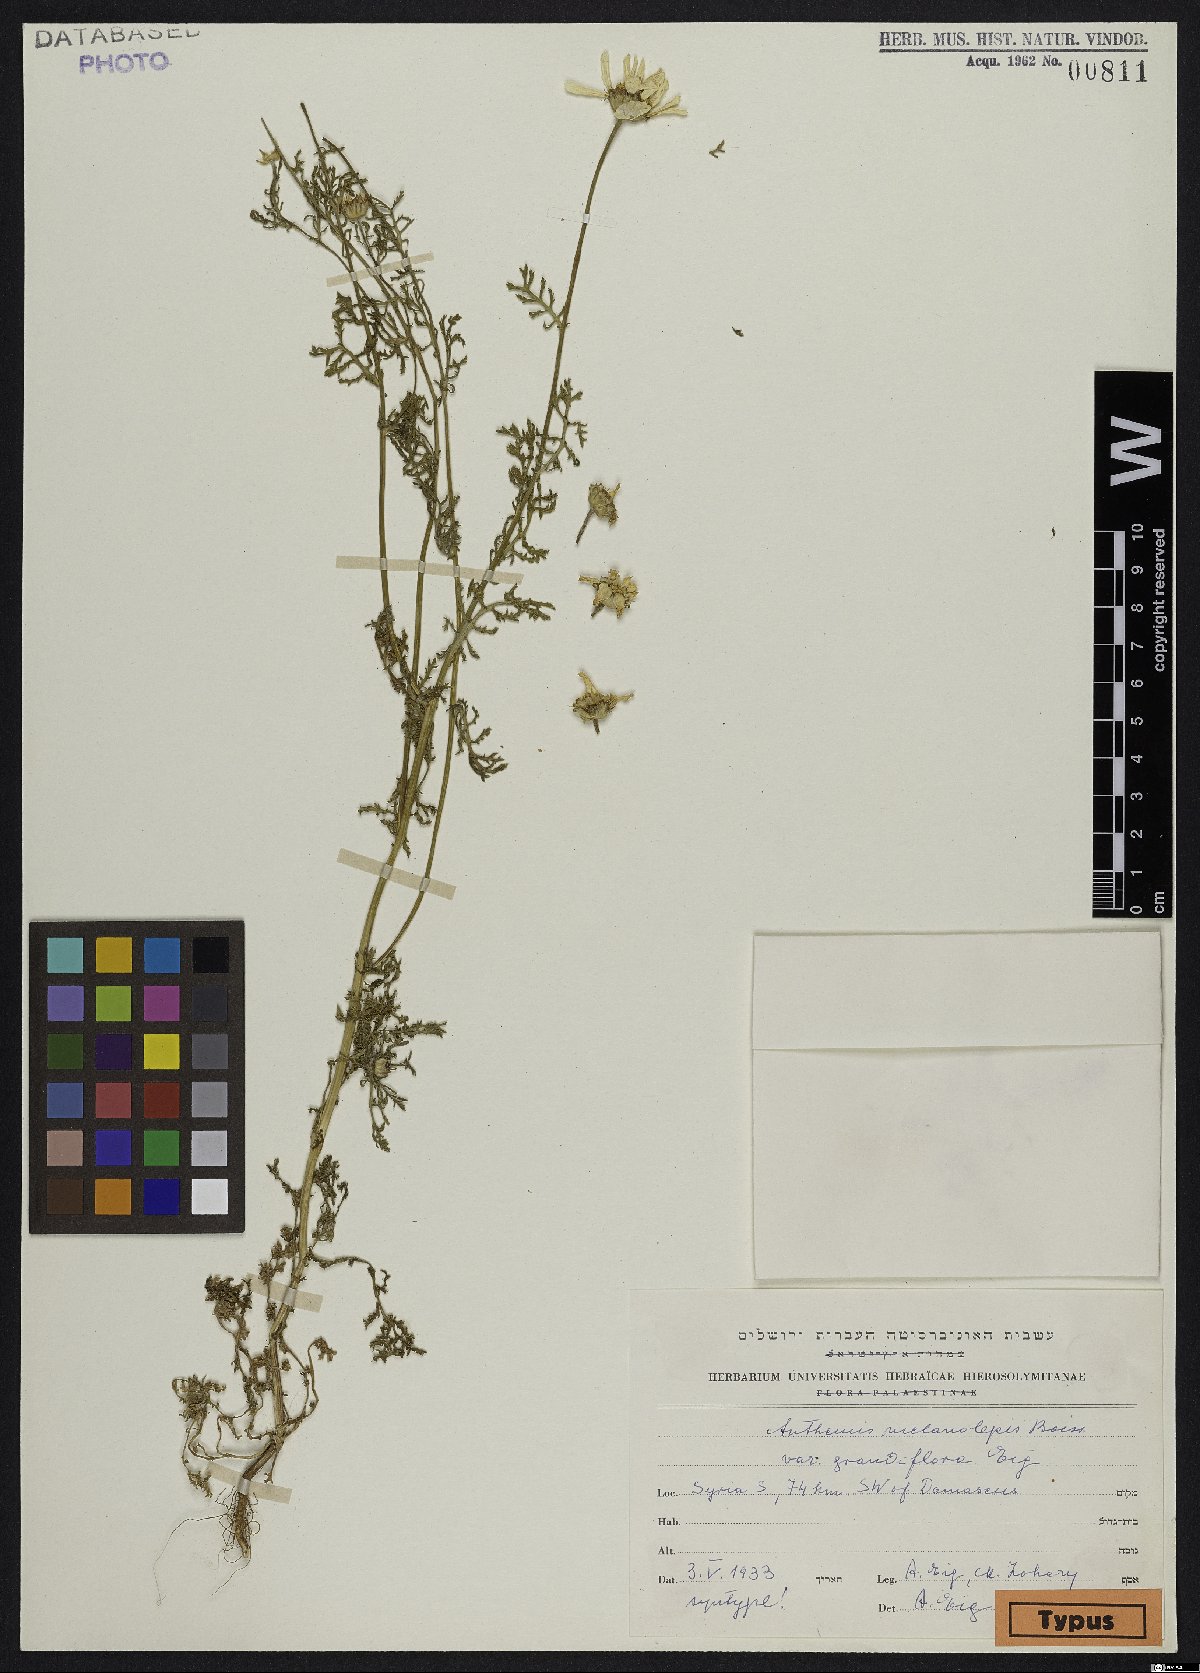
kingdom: Plantae
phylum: Tracheophyta
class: Magnoliopsida
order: Asterales
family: Asteraceae
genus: Cota
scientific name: Cota palaestina
